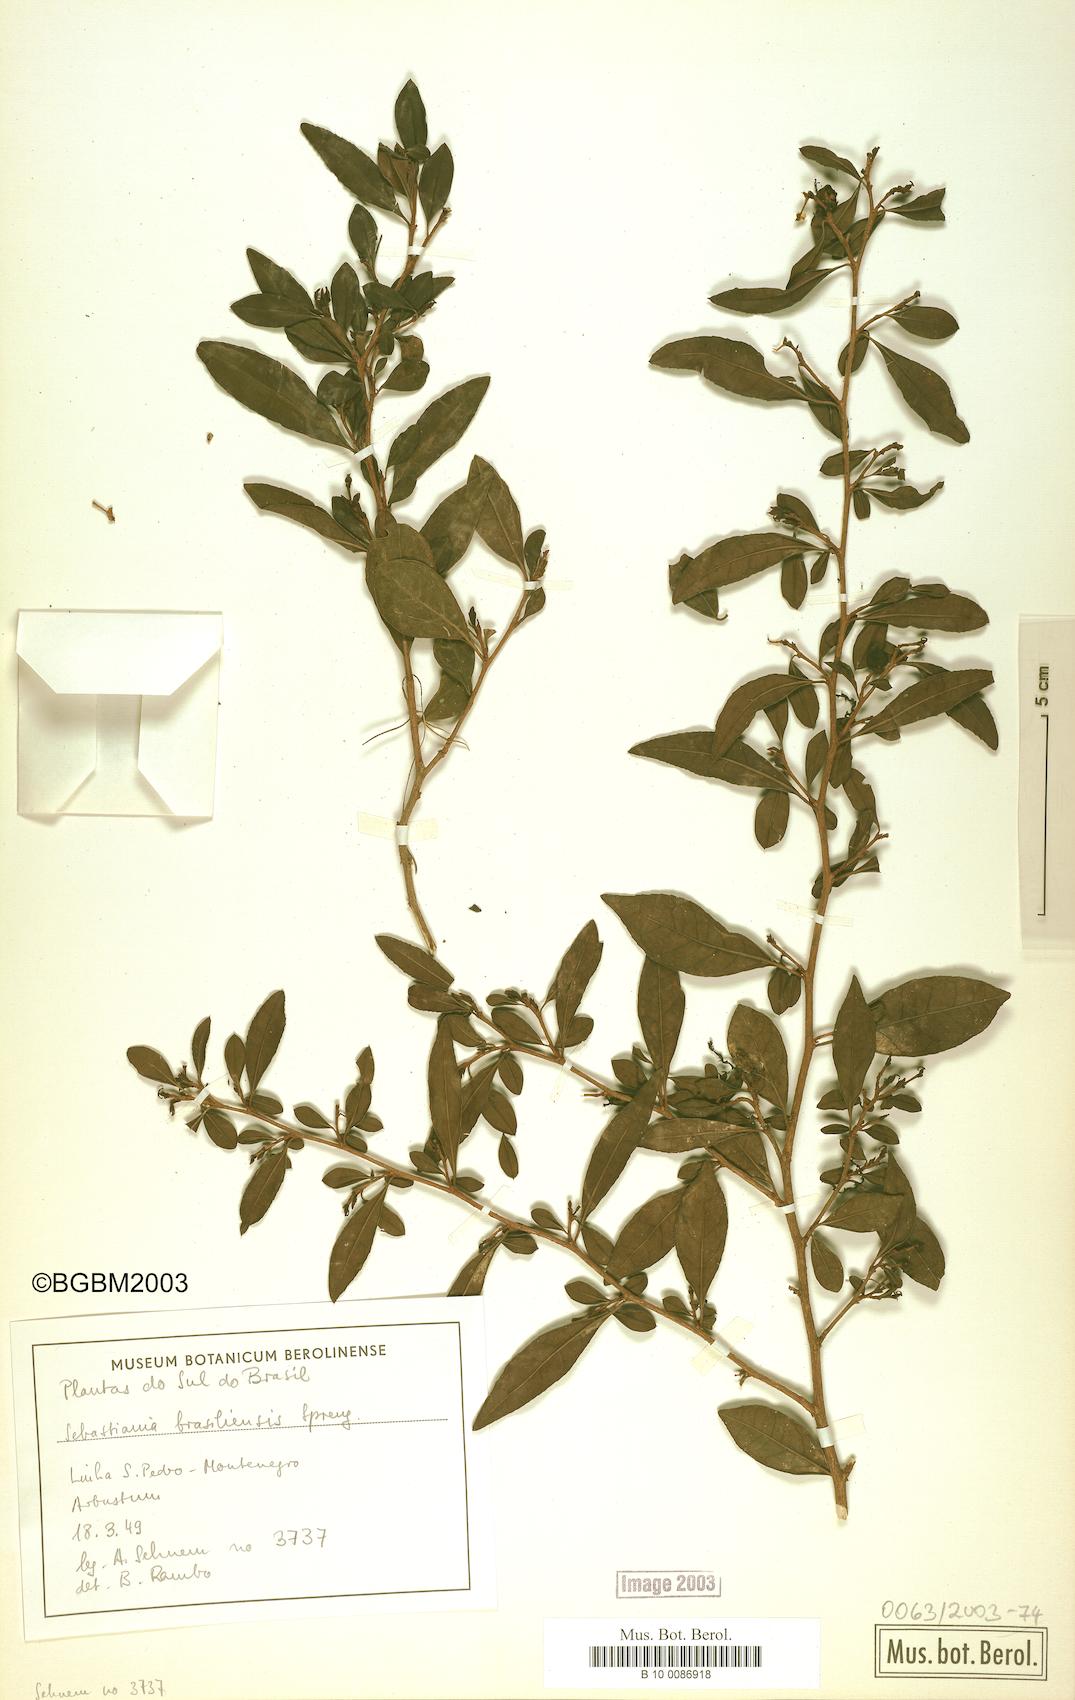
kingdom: Plantae
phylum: Tracheophyta
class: Magnoliopsida
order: Malpighiales
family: Euphorbiaceae
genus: Sebastiania
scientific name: Sebastiania brasiliensis
